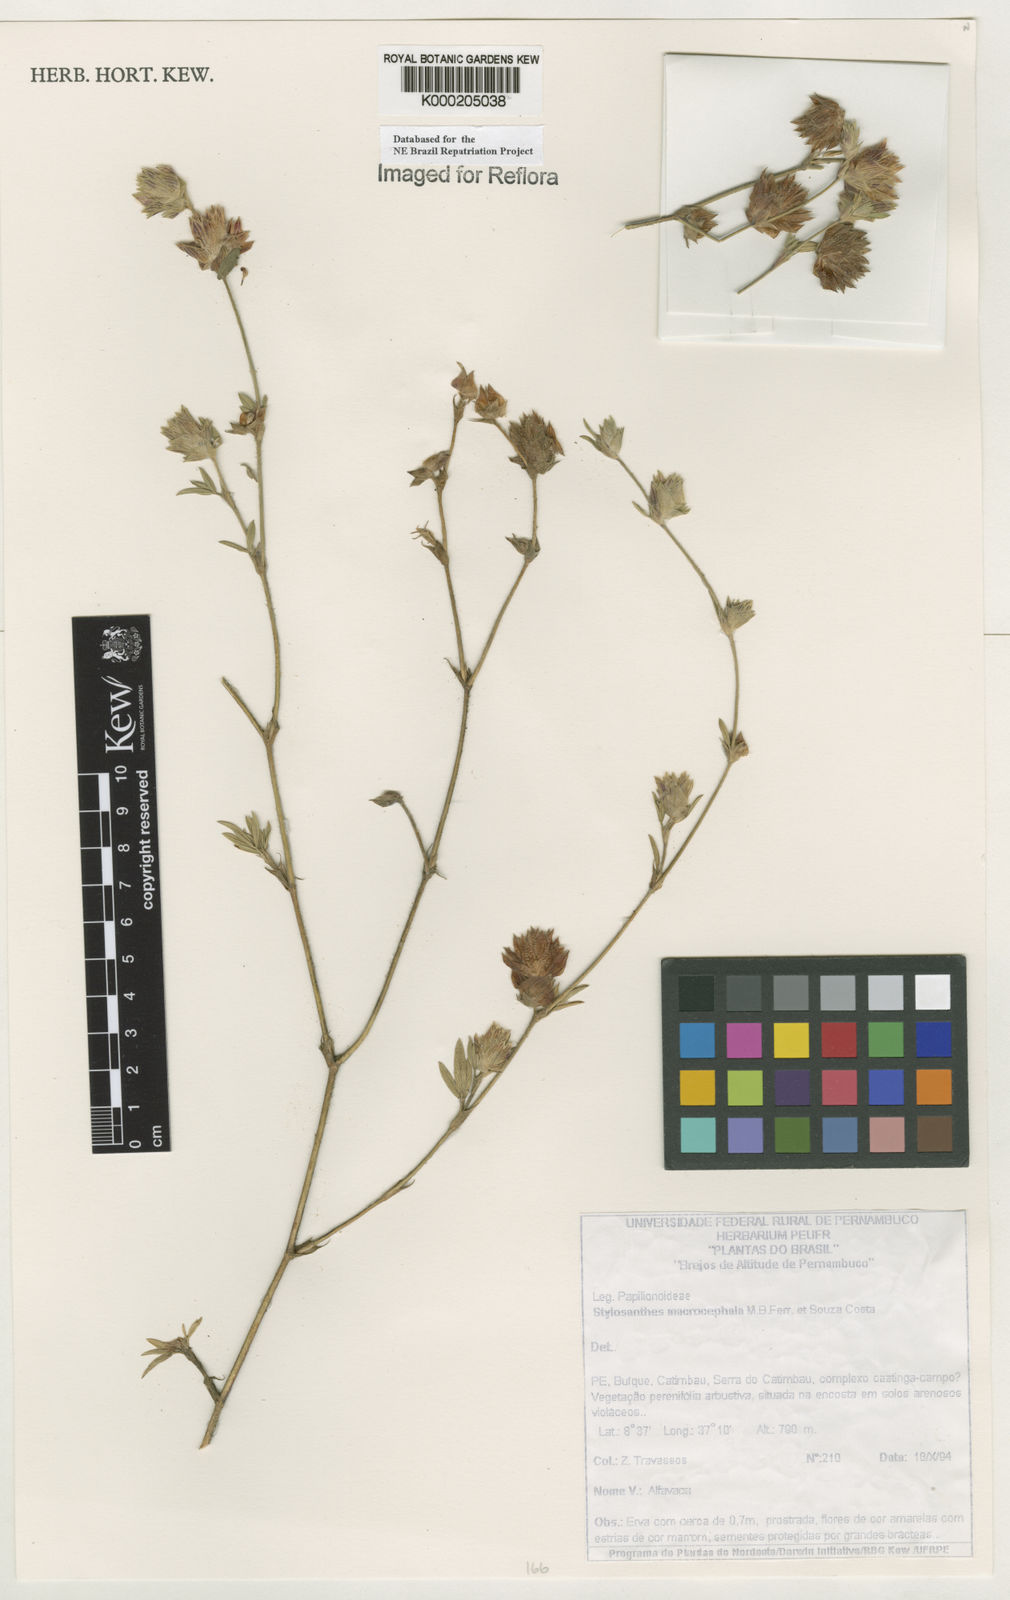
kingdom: Plantae
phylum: Tracheophyta
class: Magnoliopsida
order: Fabales
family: Fabaceae
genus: Stylosanthes
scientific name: Stylosanthes macrocephala
